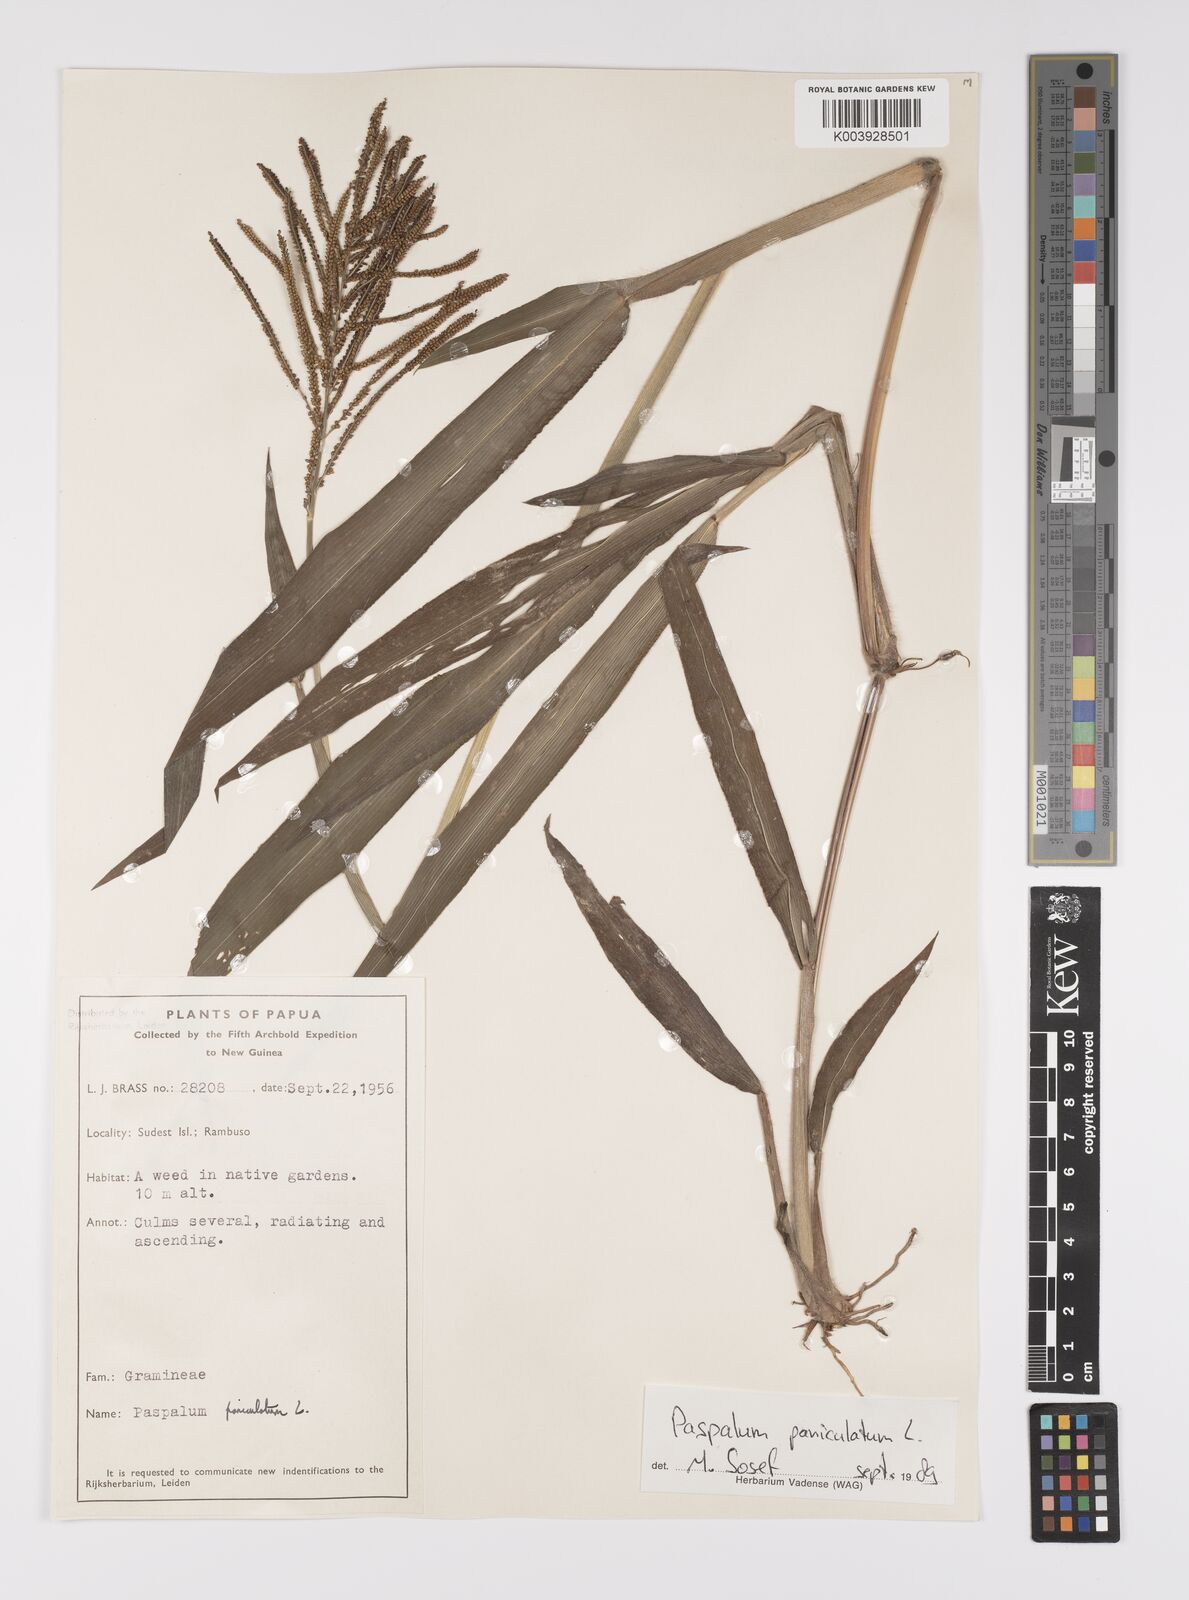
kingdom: Plantae
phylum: Tracheophyta
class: Liliopsida
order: Poales
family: Poaceae
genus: Paspalum
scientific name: Paspalum paniculatum
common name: Arrocillo
